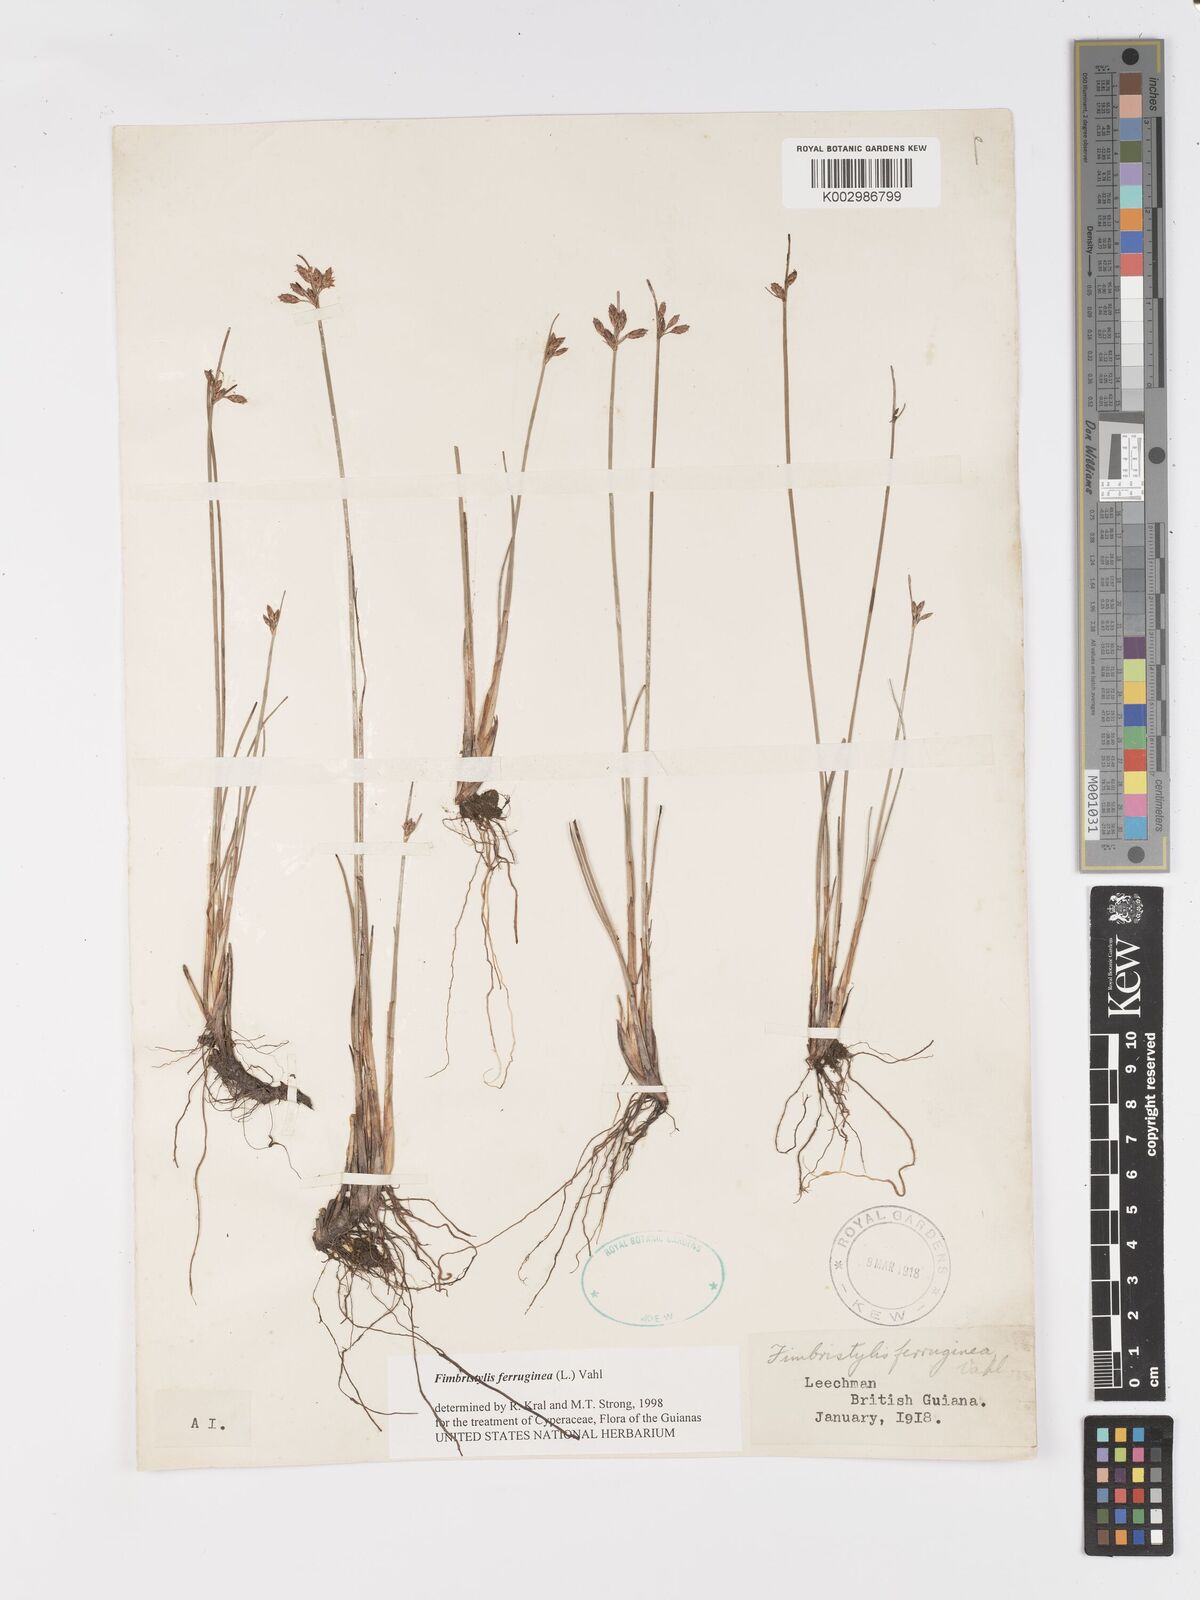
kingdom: Plantae
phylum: Tracheophyta
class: Liliopsida
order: Poales
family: Cyperaceae
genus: Fimbristylis
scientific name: Fimbristylis ferruginea
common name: West indian fimbry
